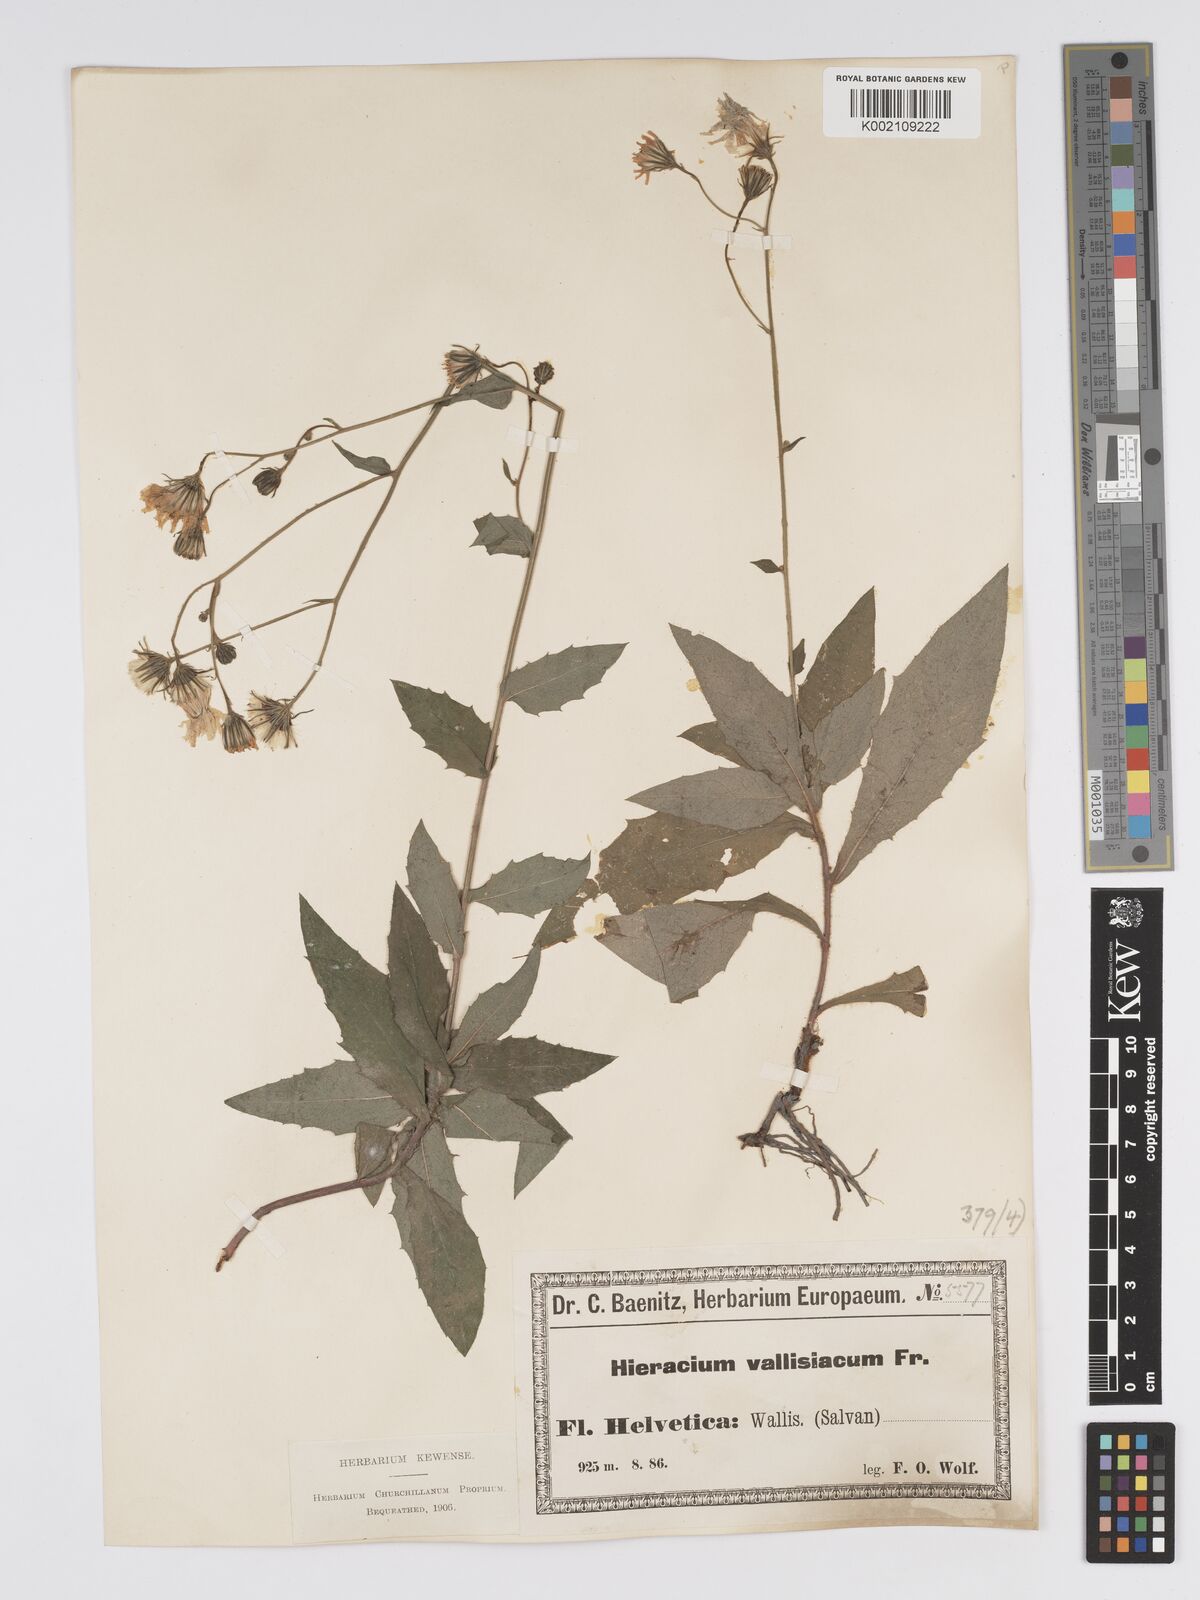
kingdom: Plantae
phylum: Tracheophyta
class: Magnoliopsida
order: Asterales
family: Asteraceae
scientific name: Asteraceae
